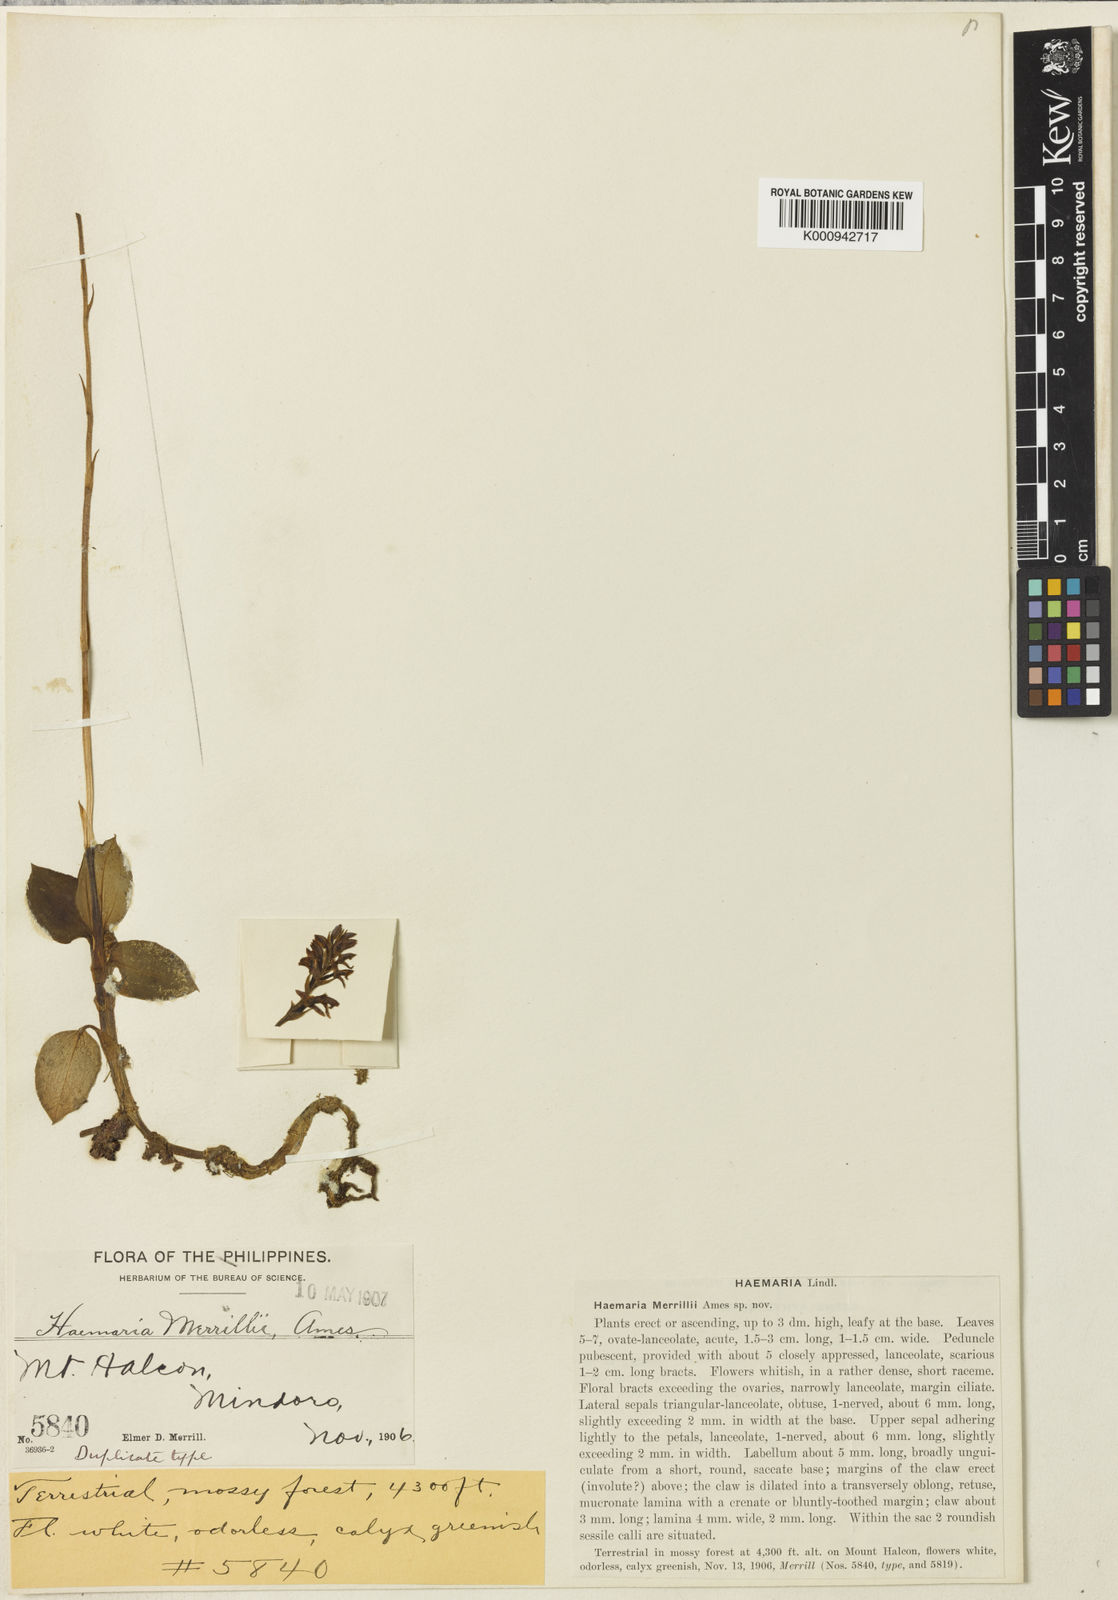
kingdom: Plantae
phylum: Tracheophyta
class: Liliopsida
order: Asparagales
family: Orchidaceae
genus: Odontochilus
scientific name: Odontochilus whiteheadii
